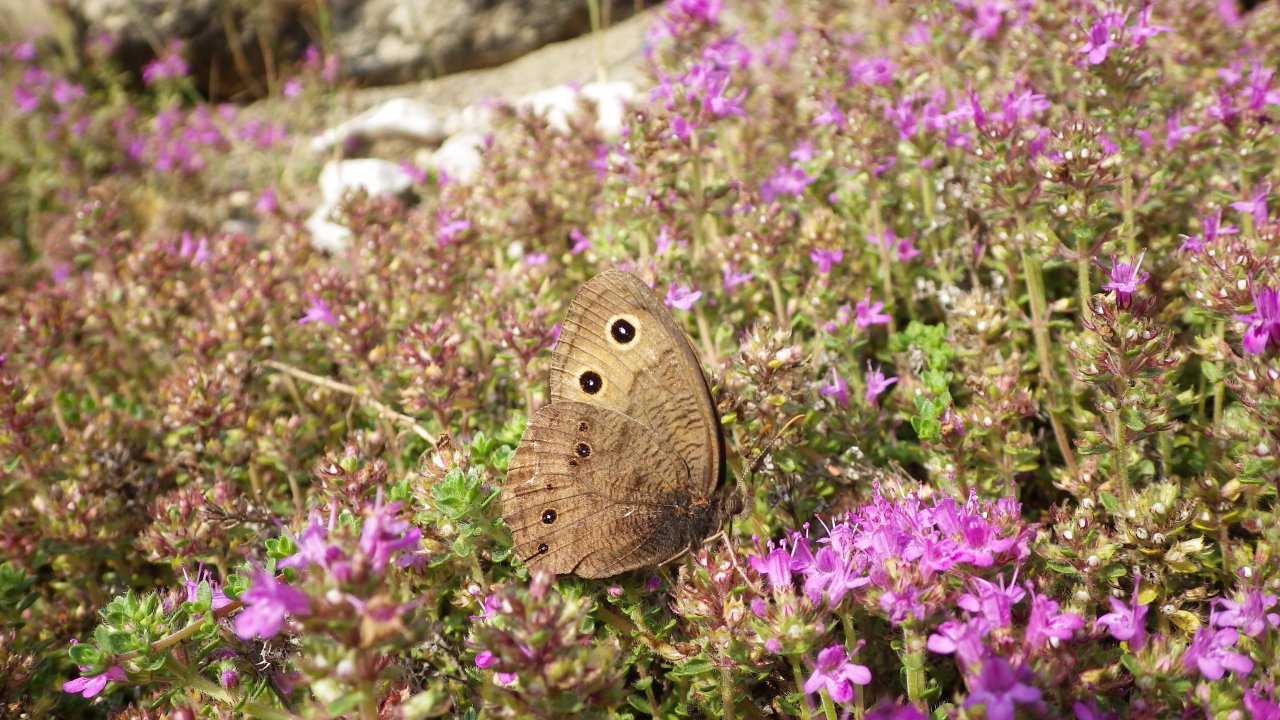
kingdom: Animalia
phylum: Arthropoda
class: Insecta
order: Lepidoptera
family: Nymphalidae
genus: Cercyonis
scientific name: Cercyonis pegala
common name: Common Wood-Nymph
